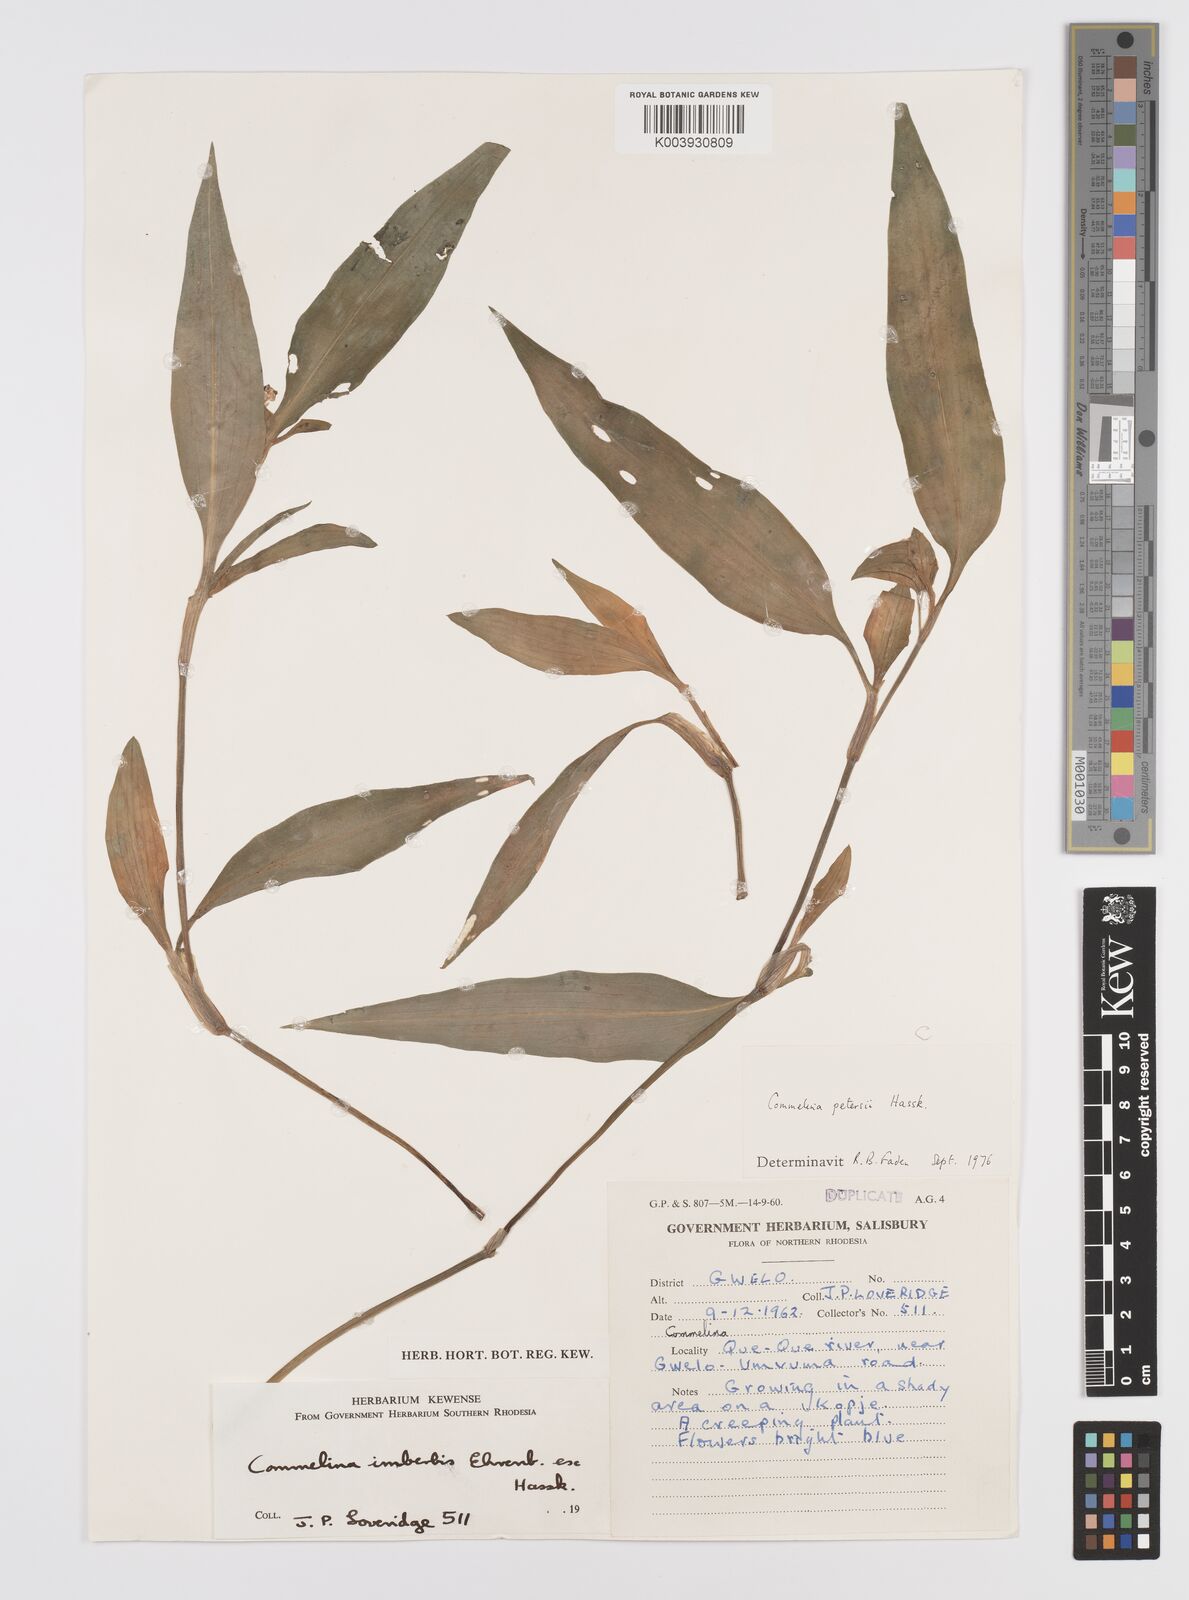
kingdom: Plantae
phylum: Tracheophyta
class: Liliopsida
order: Commelinales
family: Commelinaceae
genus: Commelina
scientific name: Commelina petersii
